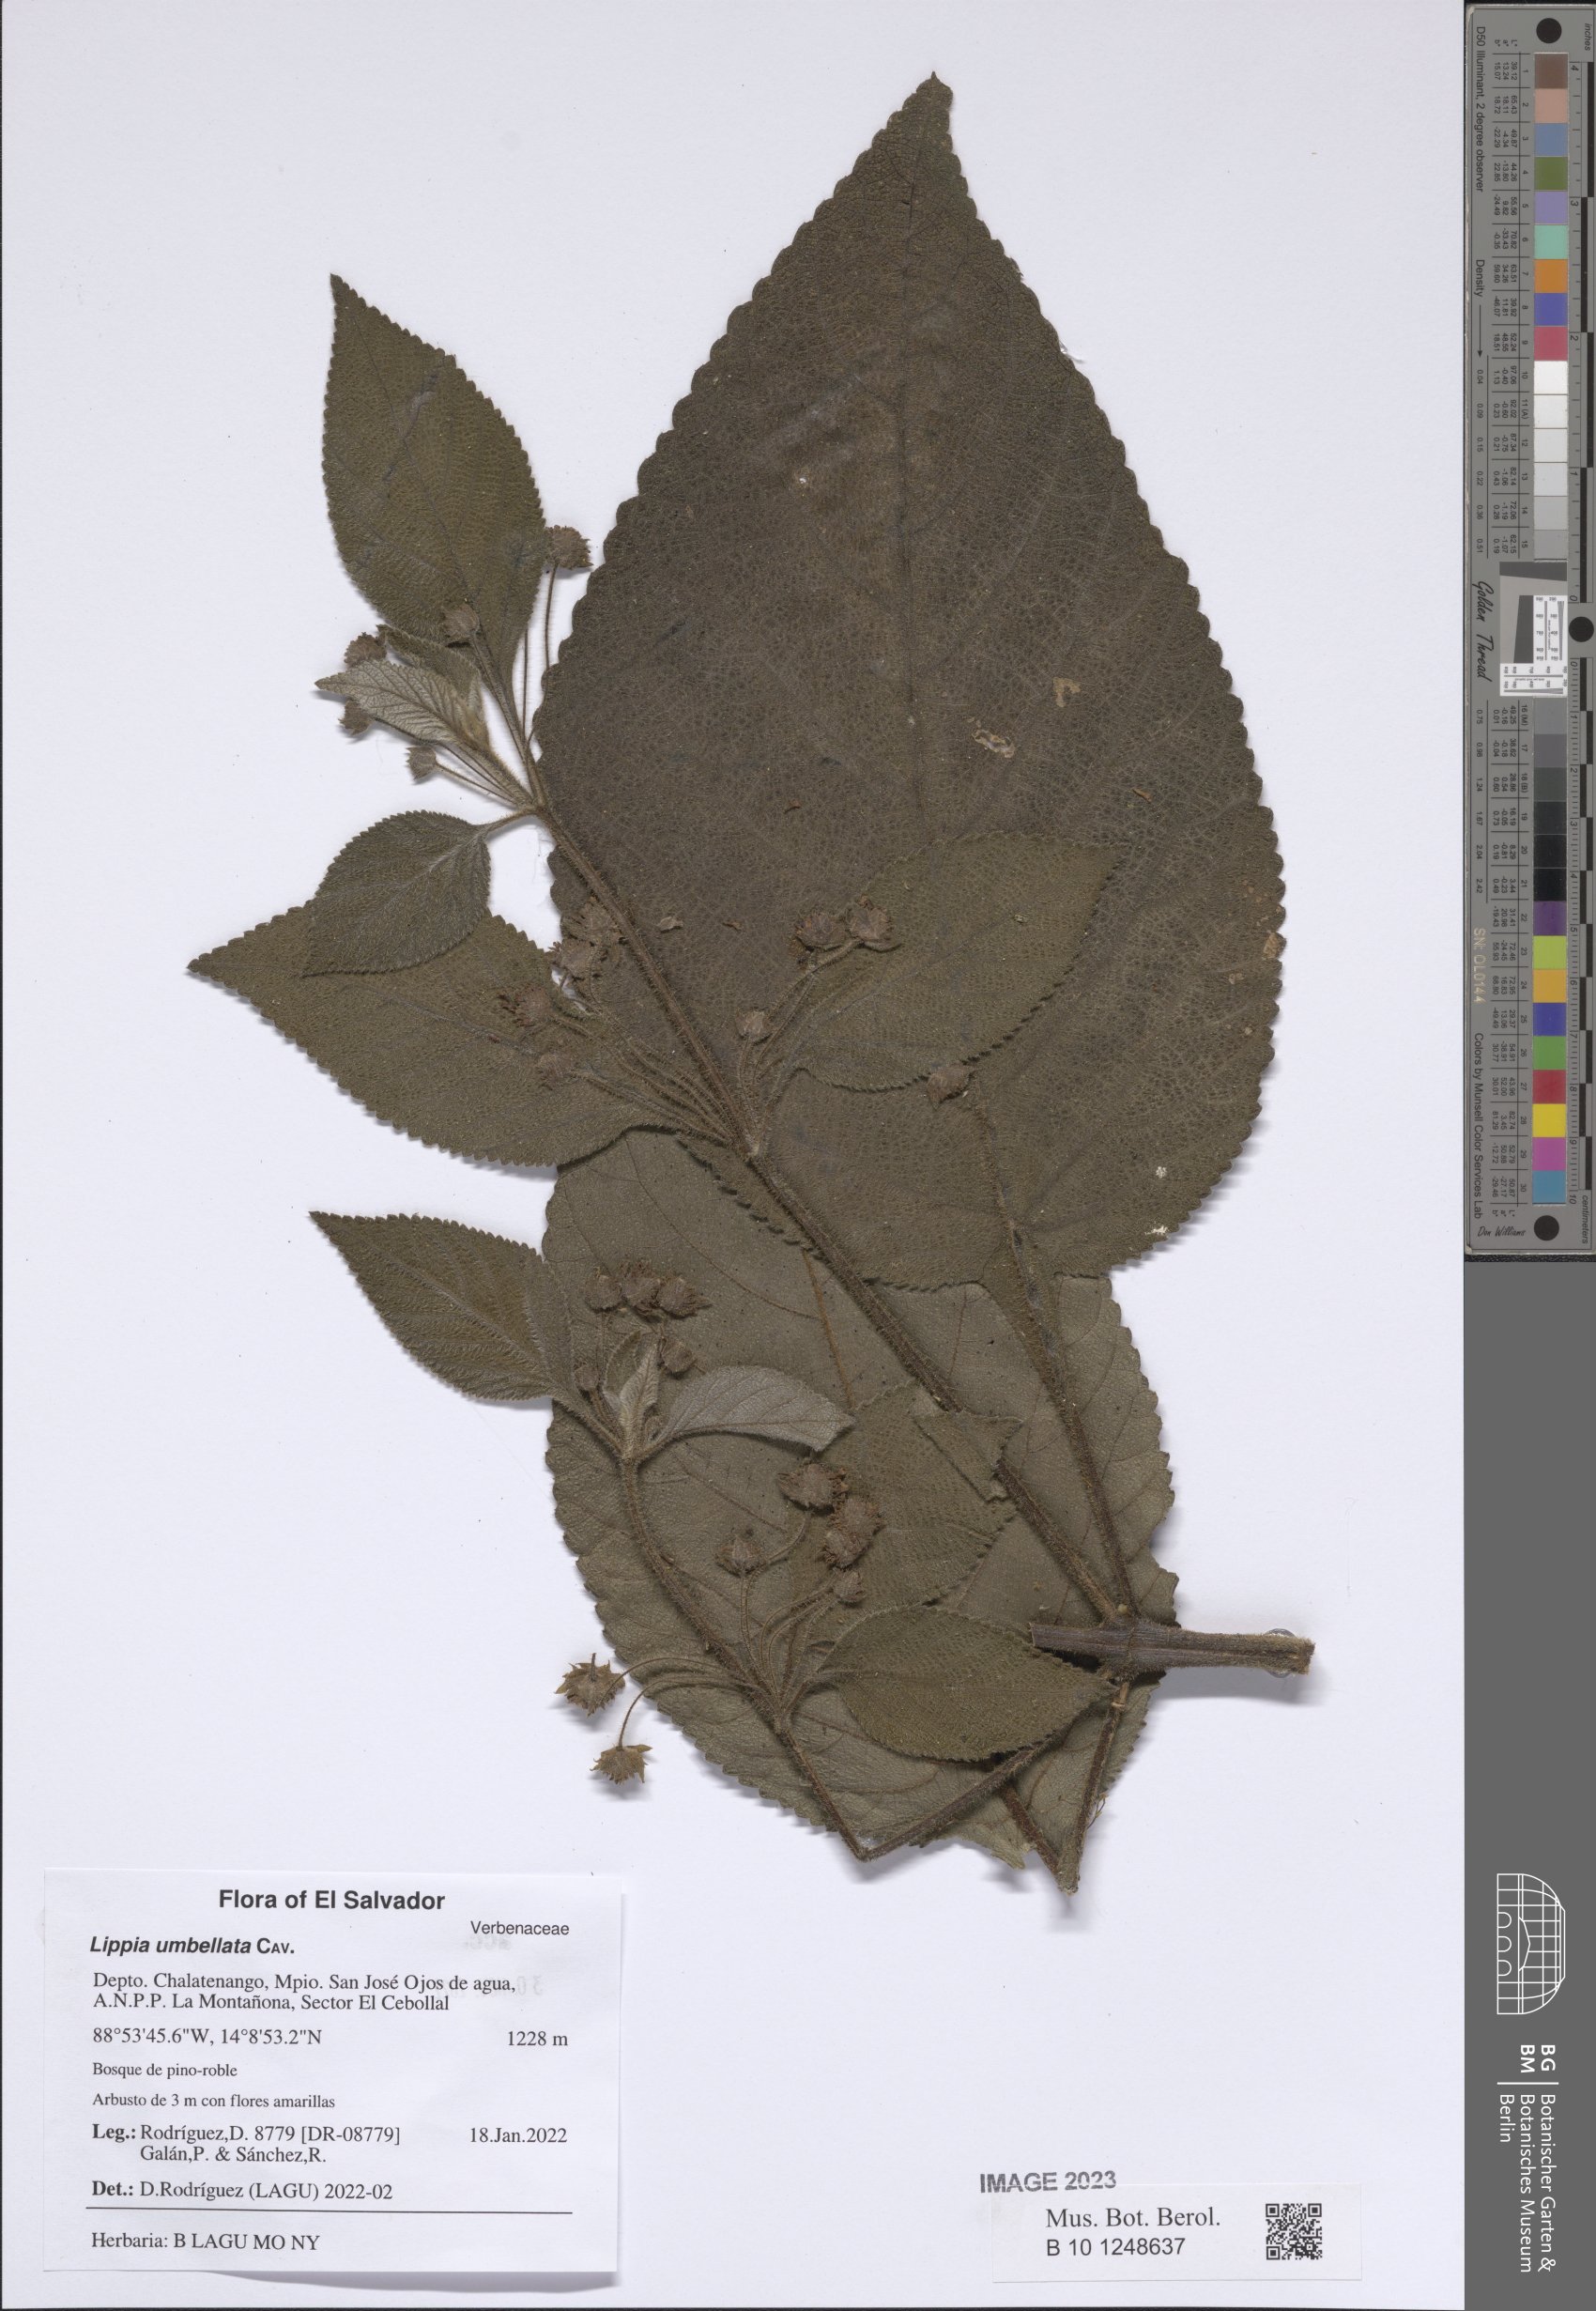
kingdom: Plantae
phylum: Tracheophyta
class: Magnoliopsida
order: Lamiales
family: Verbenaceae
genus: Lippia
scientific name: Lippia umbellata
